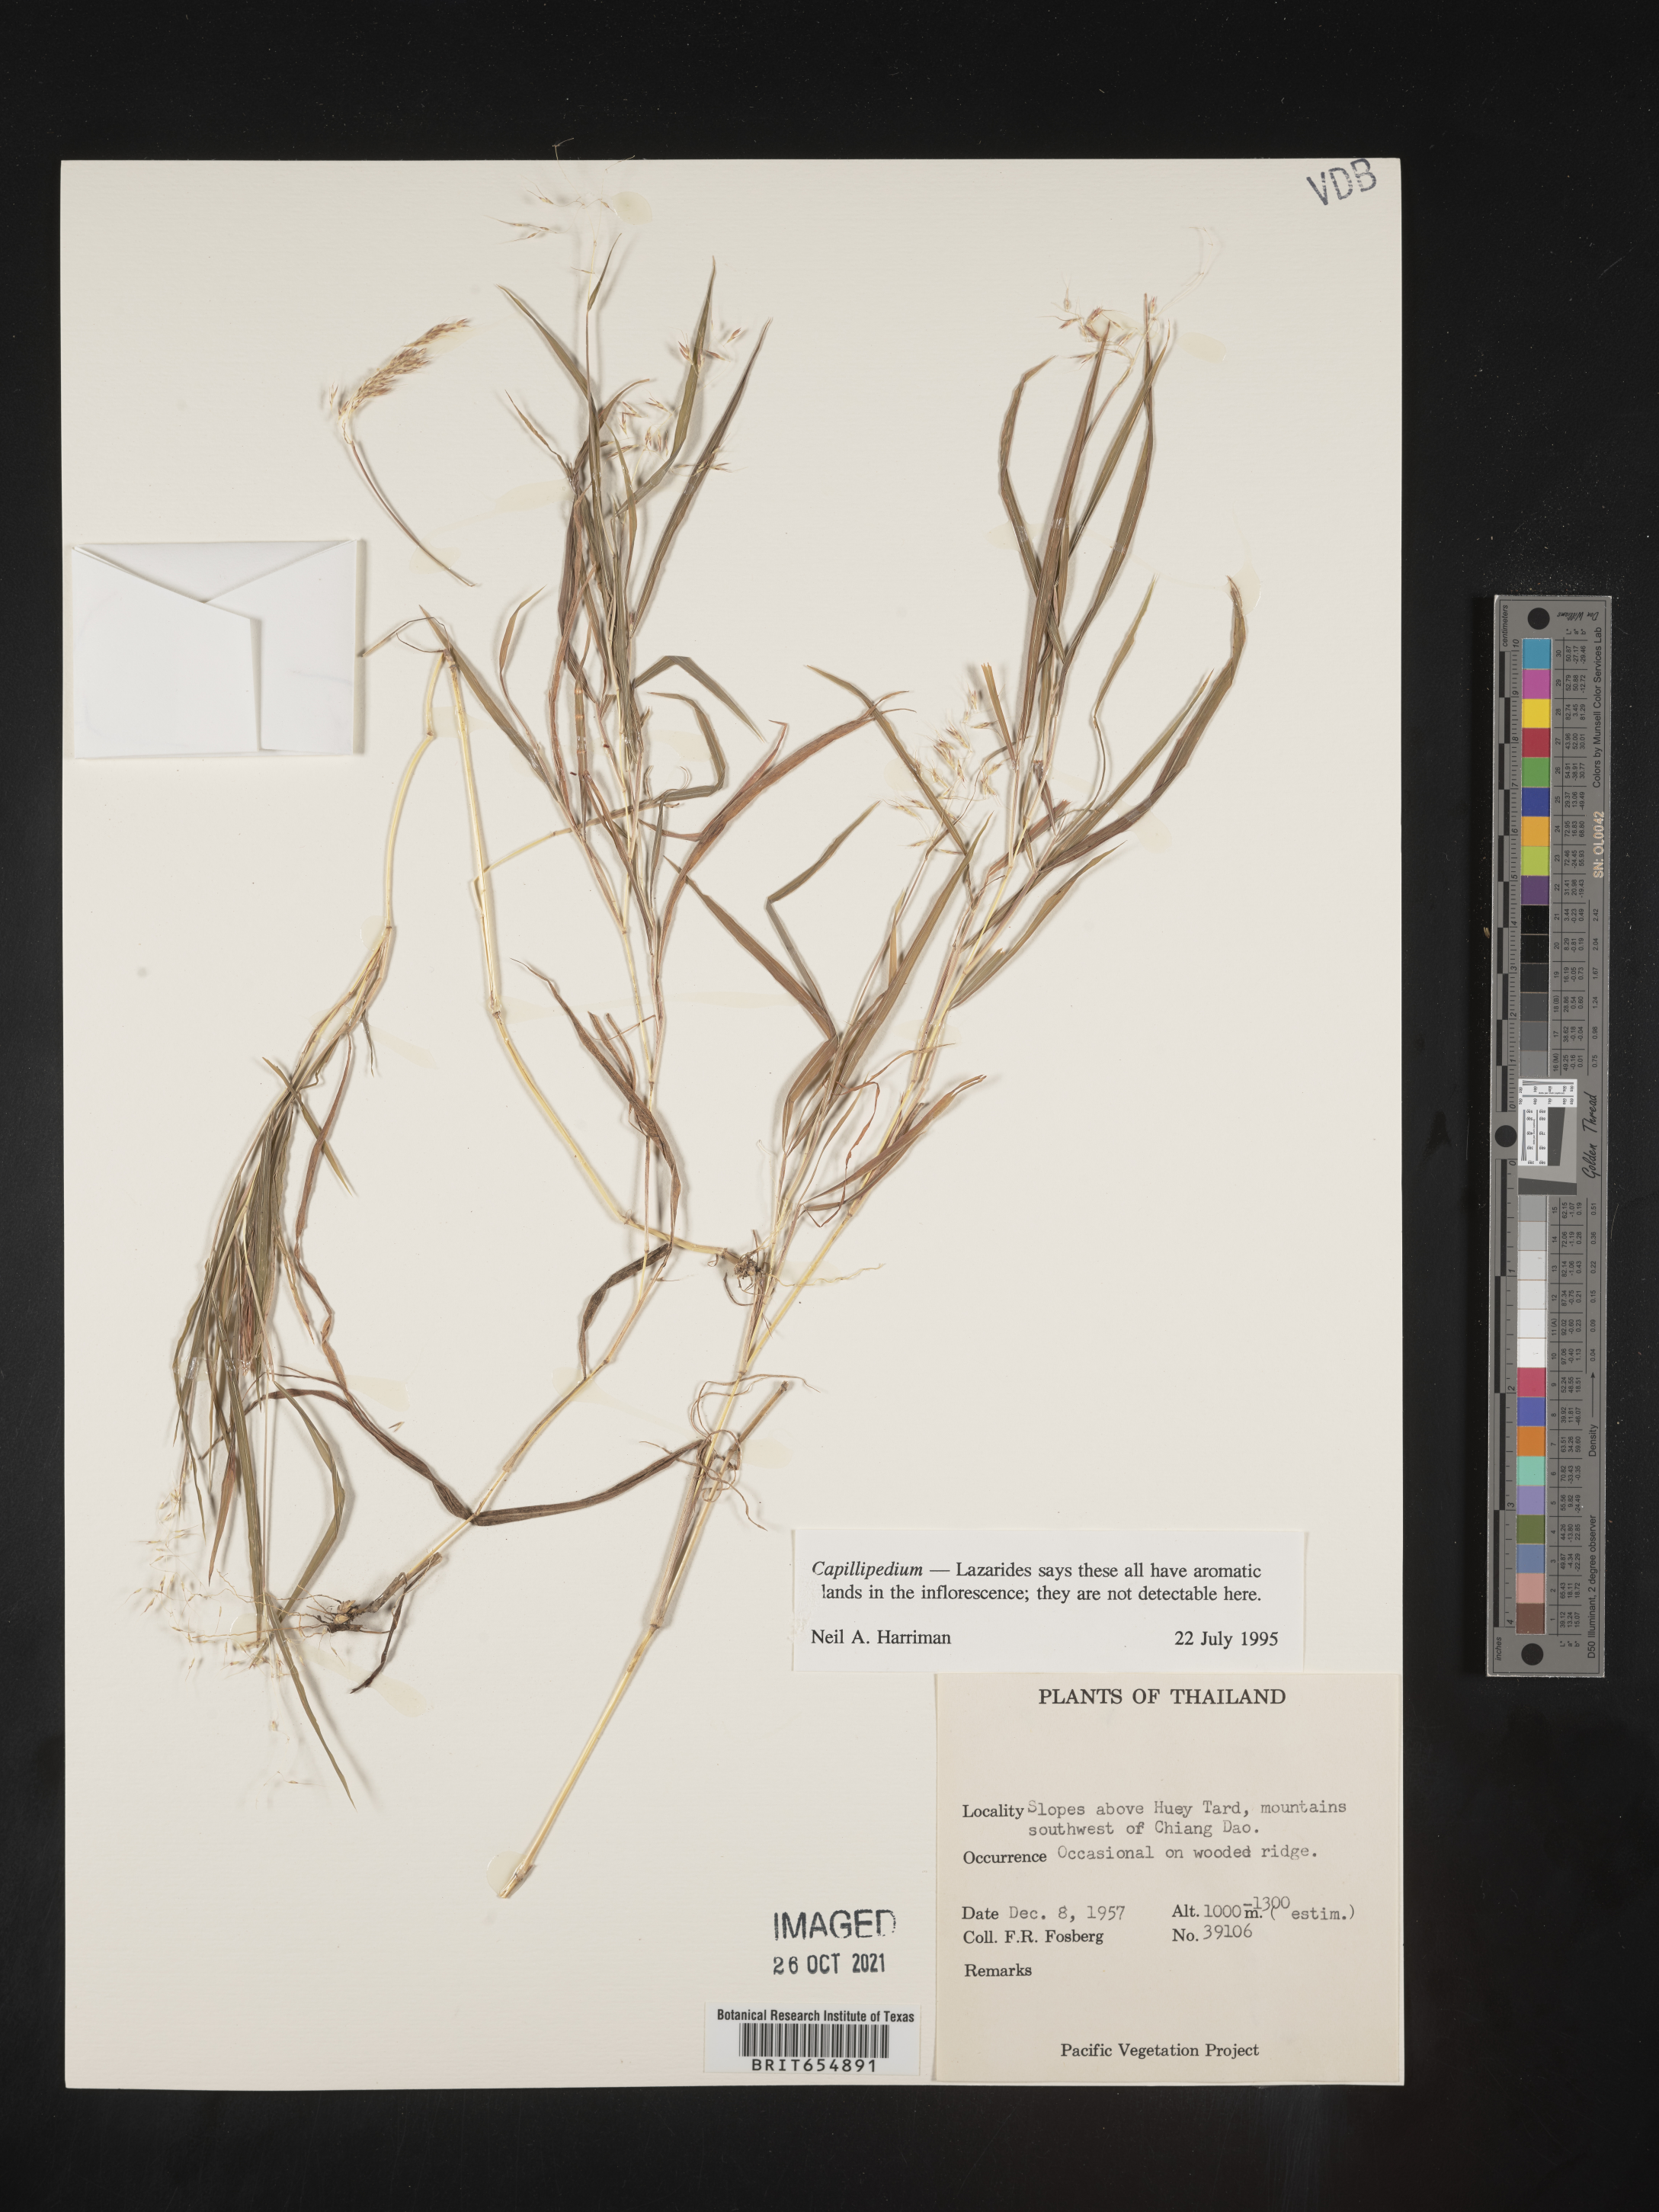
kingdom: Plantae
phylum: Tracheophyta
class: Liliopsida
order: Poales
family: Poaceae
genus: Capillipedium
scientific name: Capillipedium
